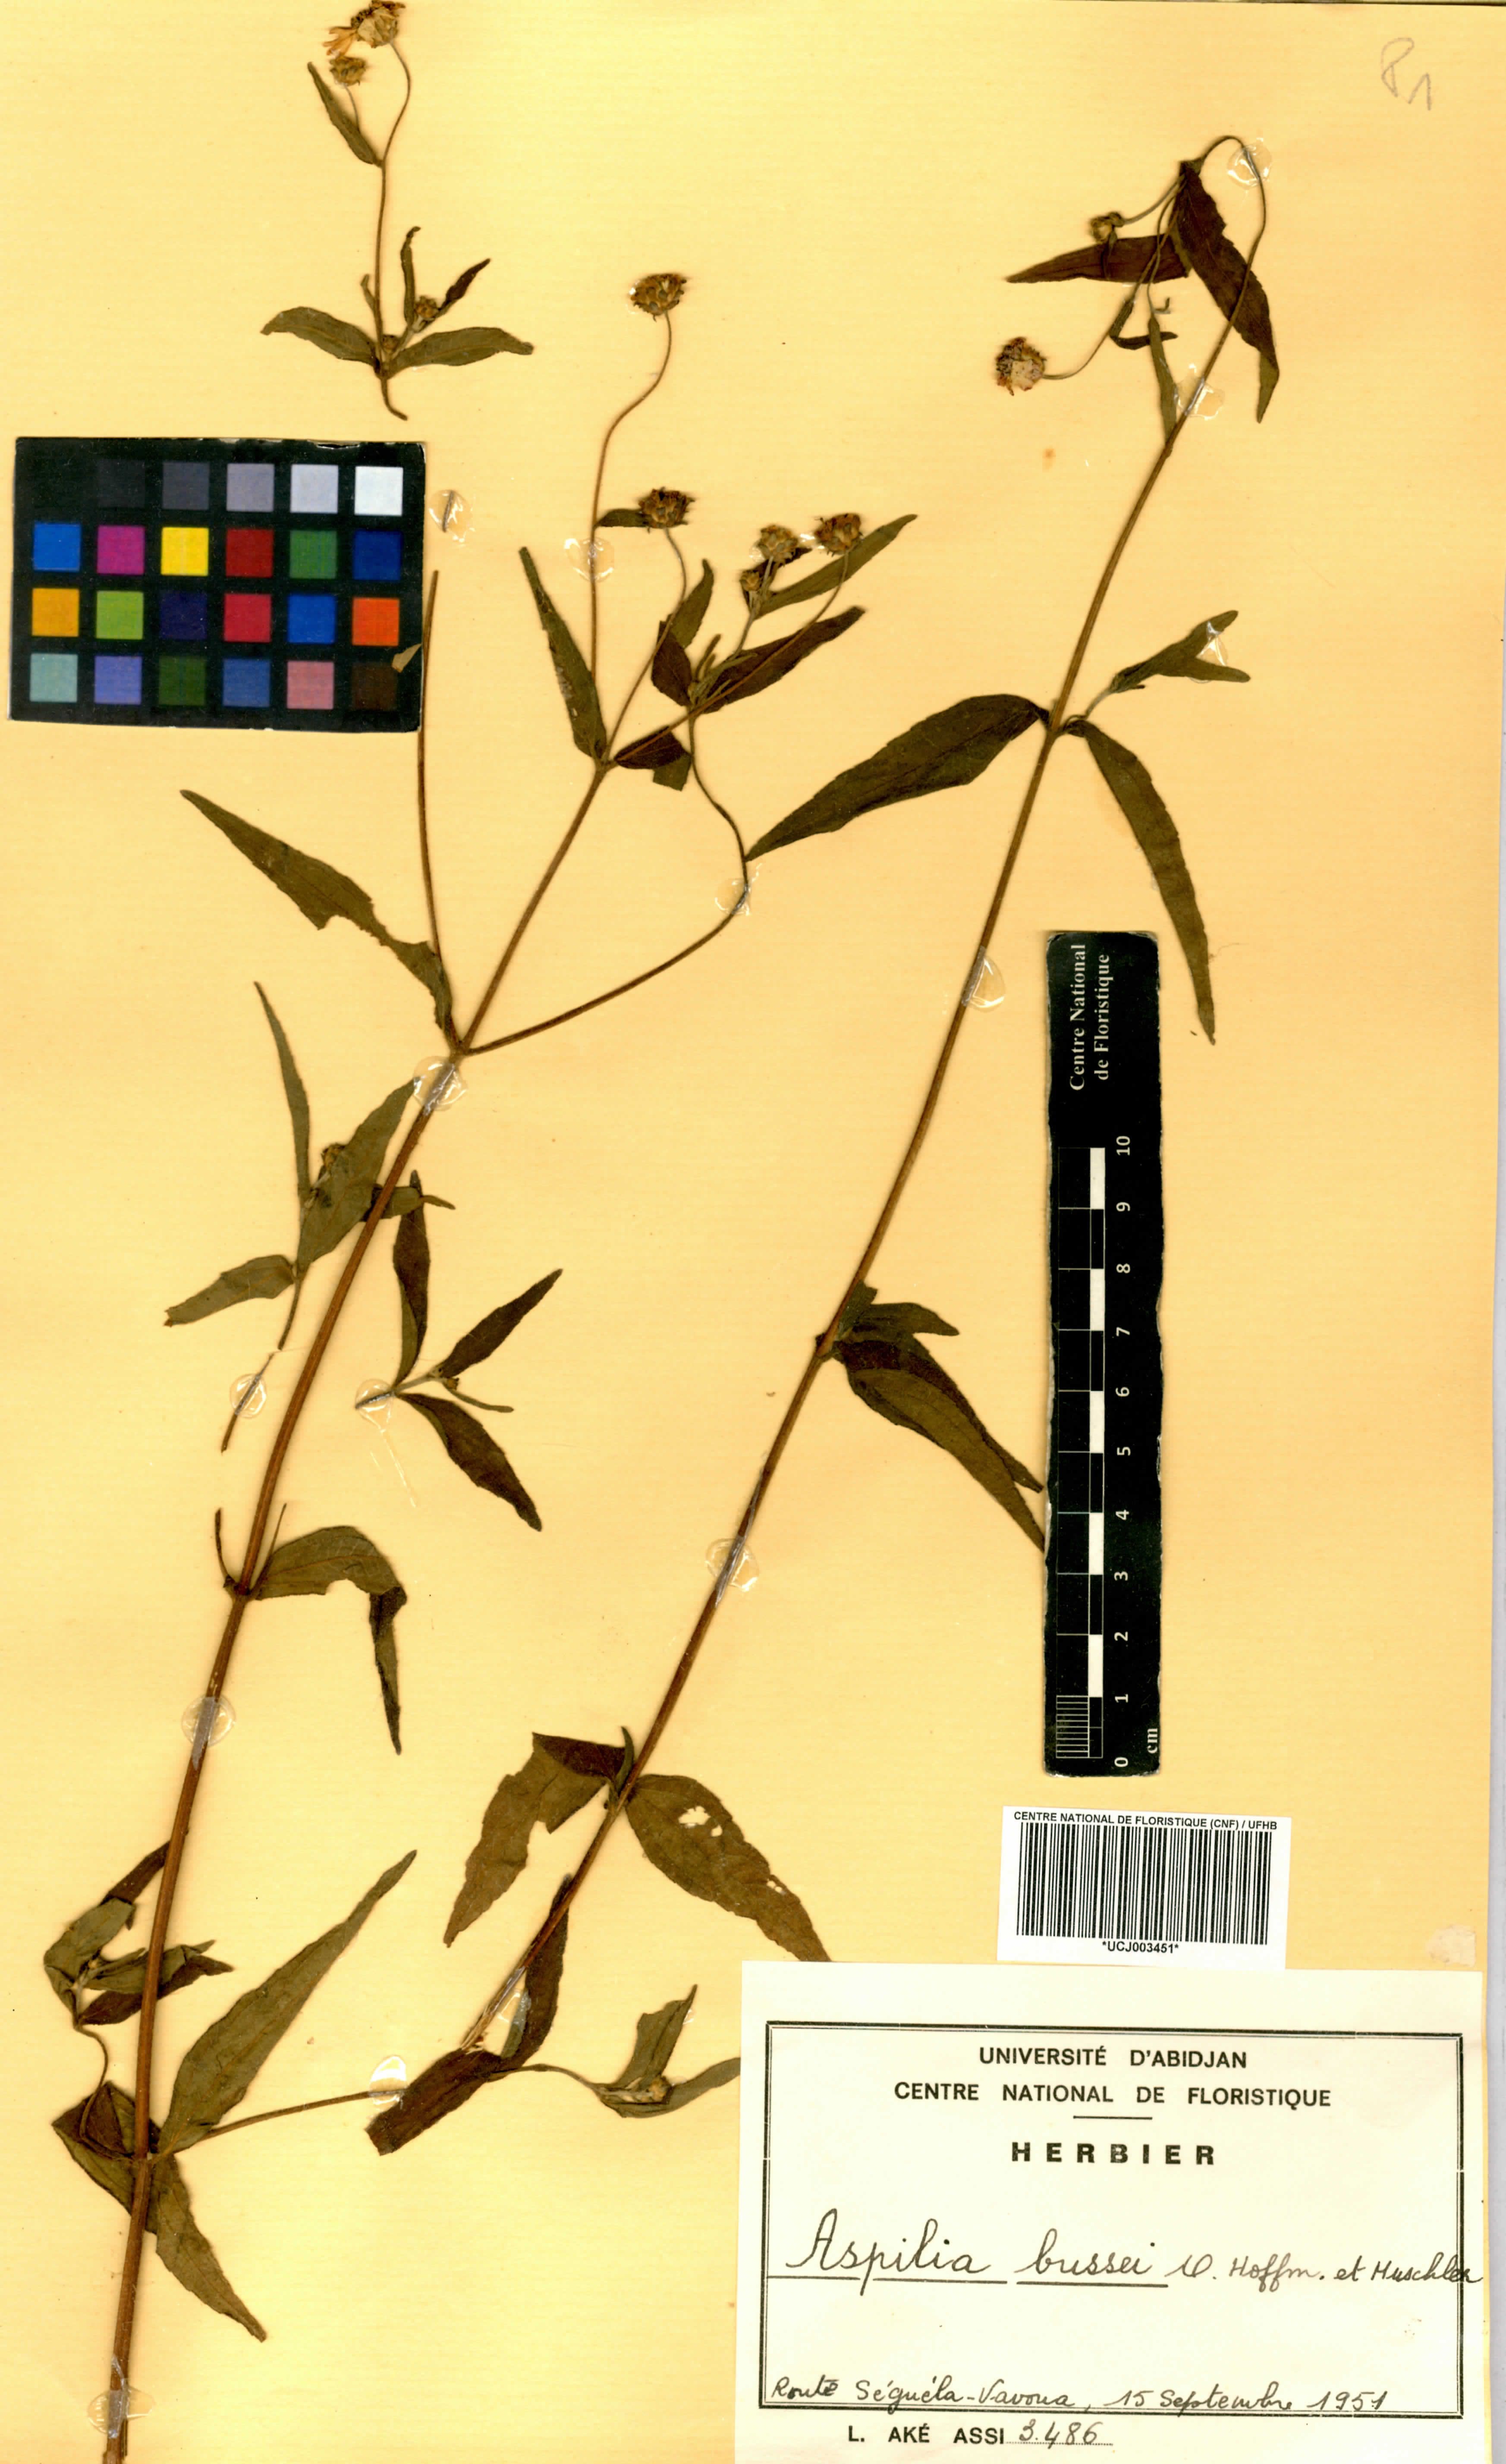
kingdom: Plantae
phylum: Tracheophyta
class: Magnoliopsida
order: Asterales
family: Asteraceae
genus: Aspilia
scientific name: Aspilia bussei
